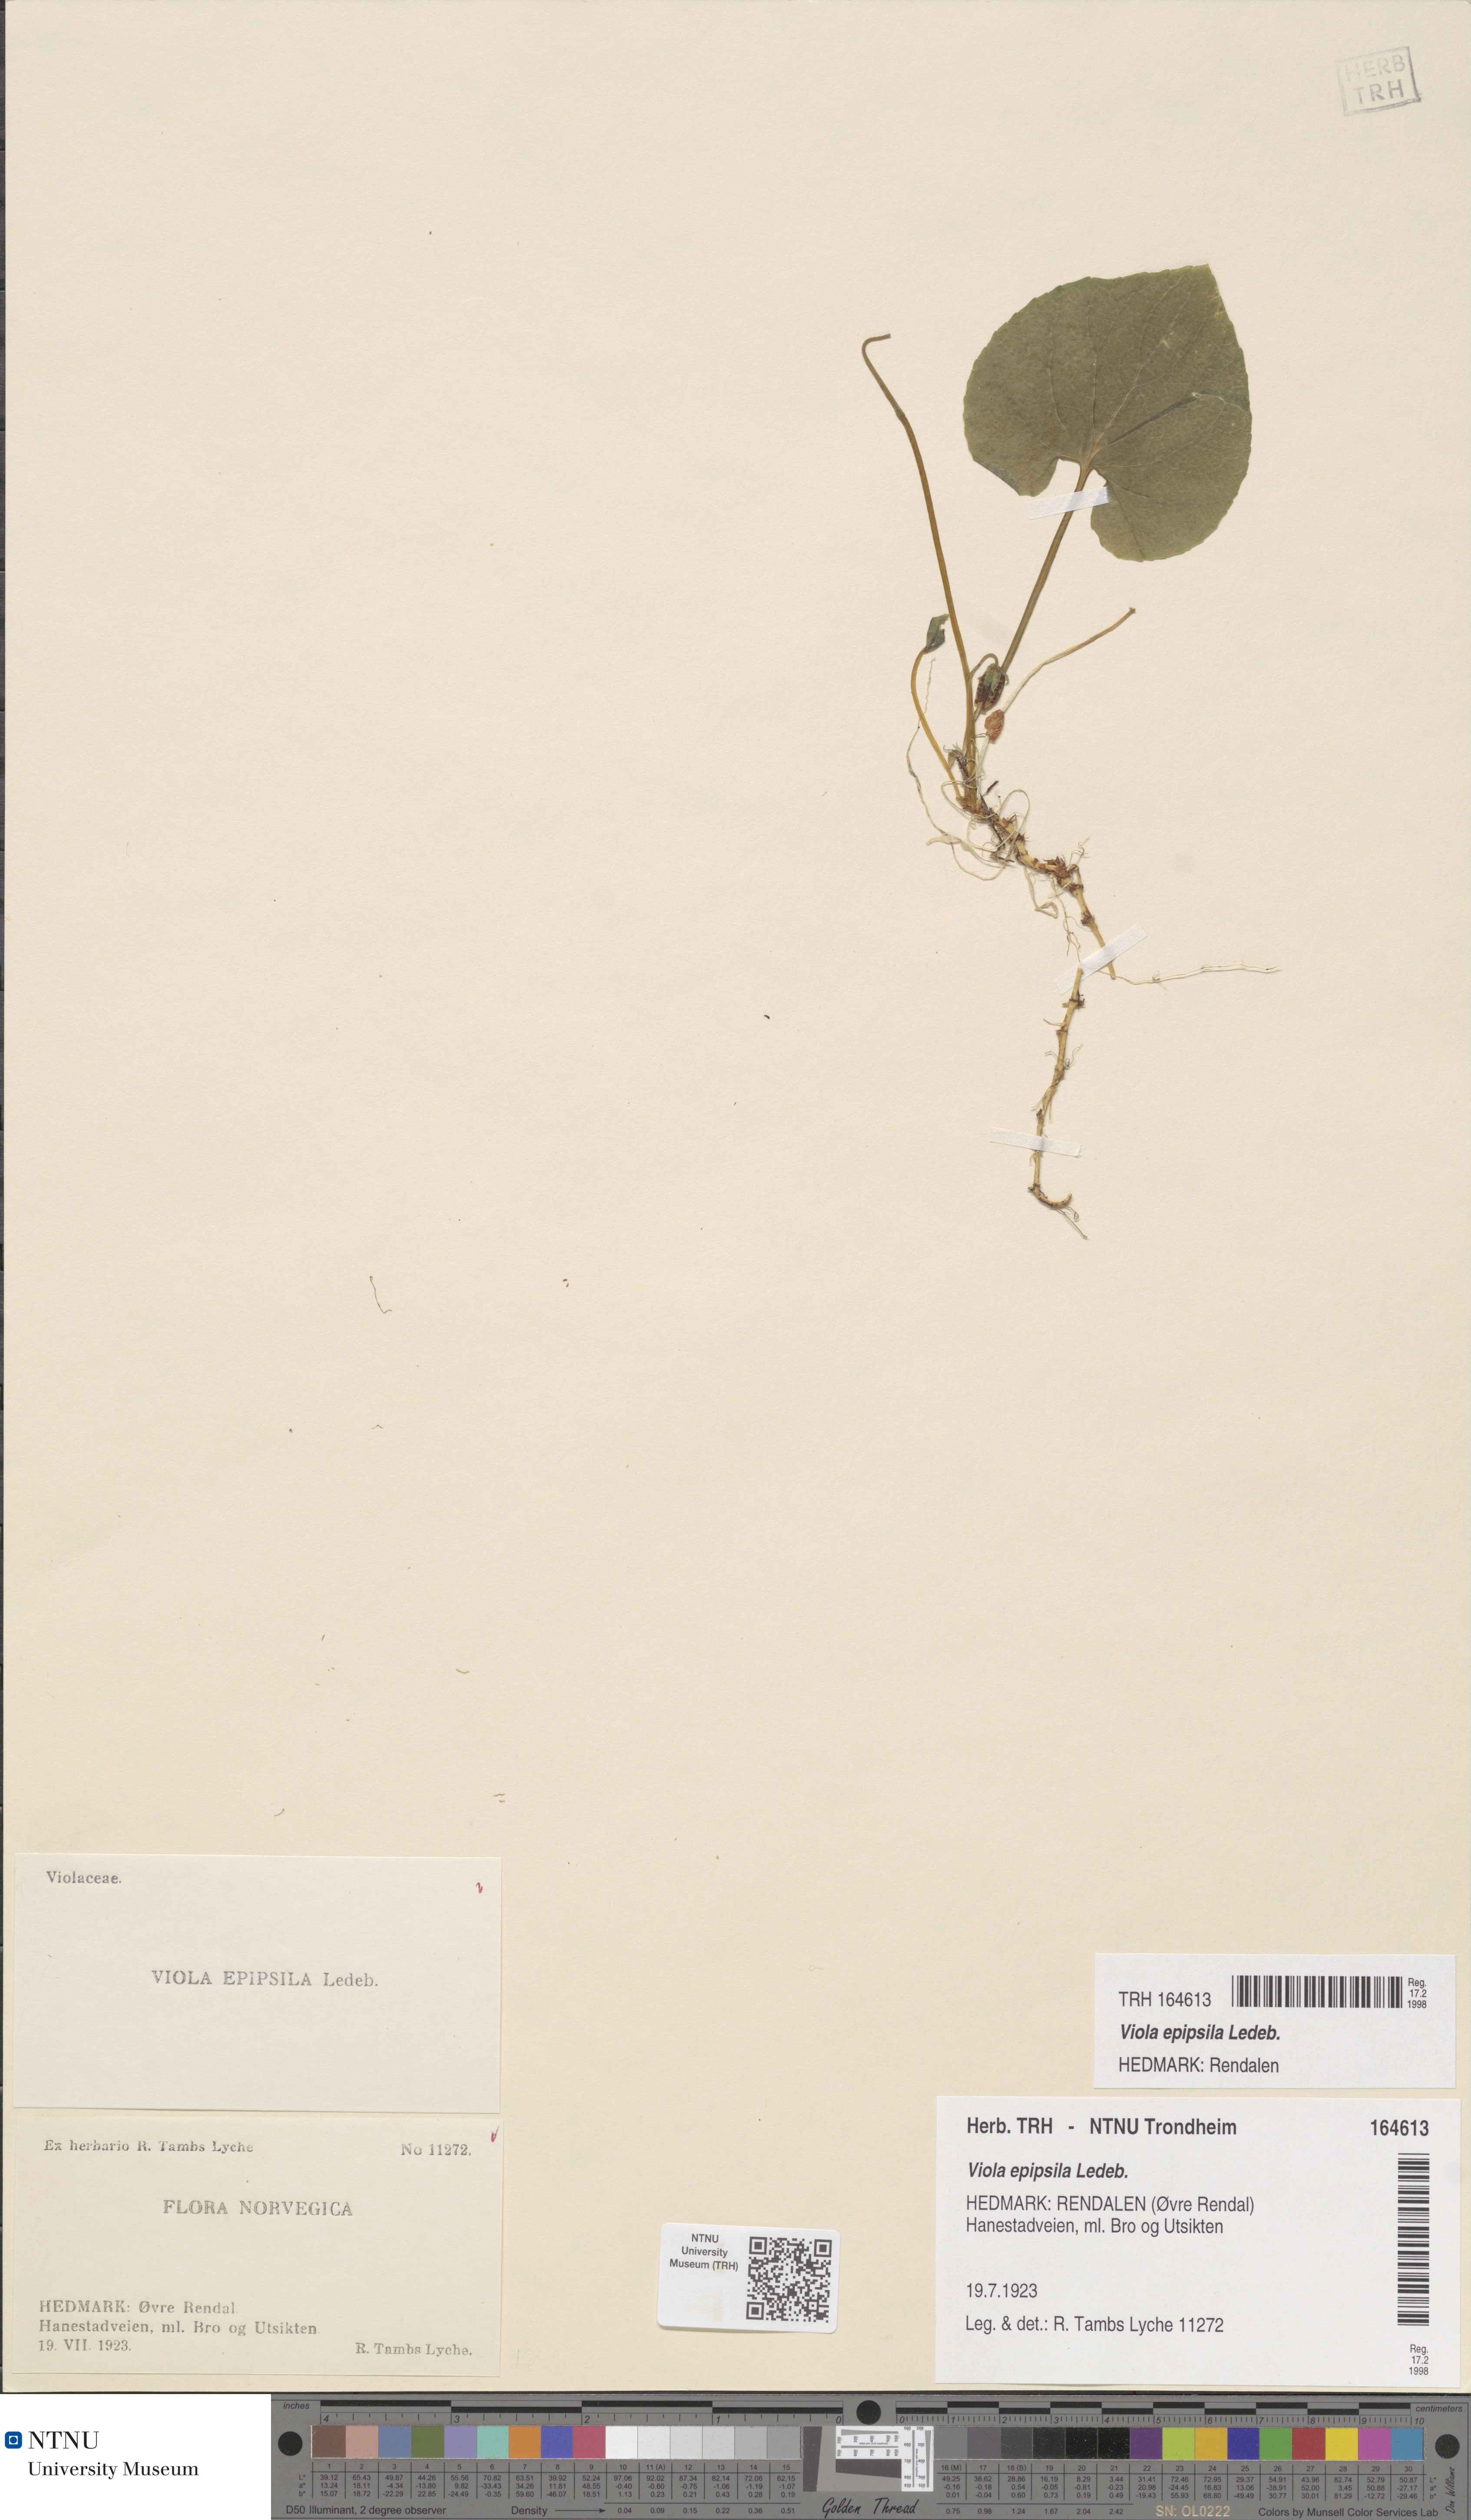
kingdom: Plantae
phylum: Tracheophyta
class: Magnoliopsida
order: Malpighiales
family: Violaceae
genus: Viola
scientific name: Viola epipsila
